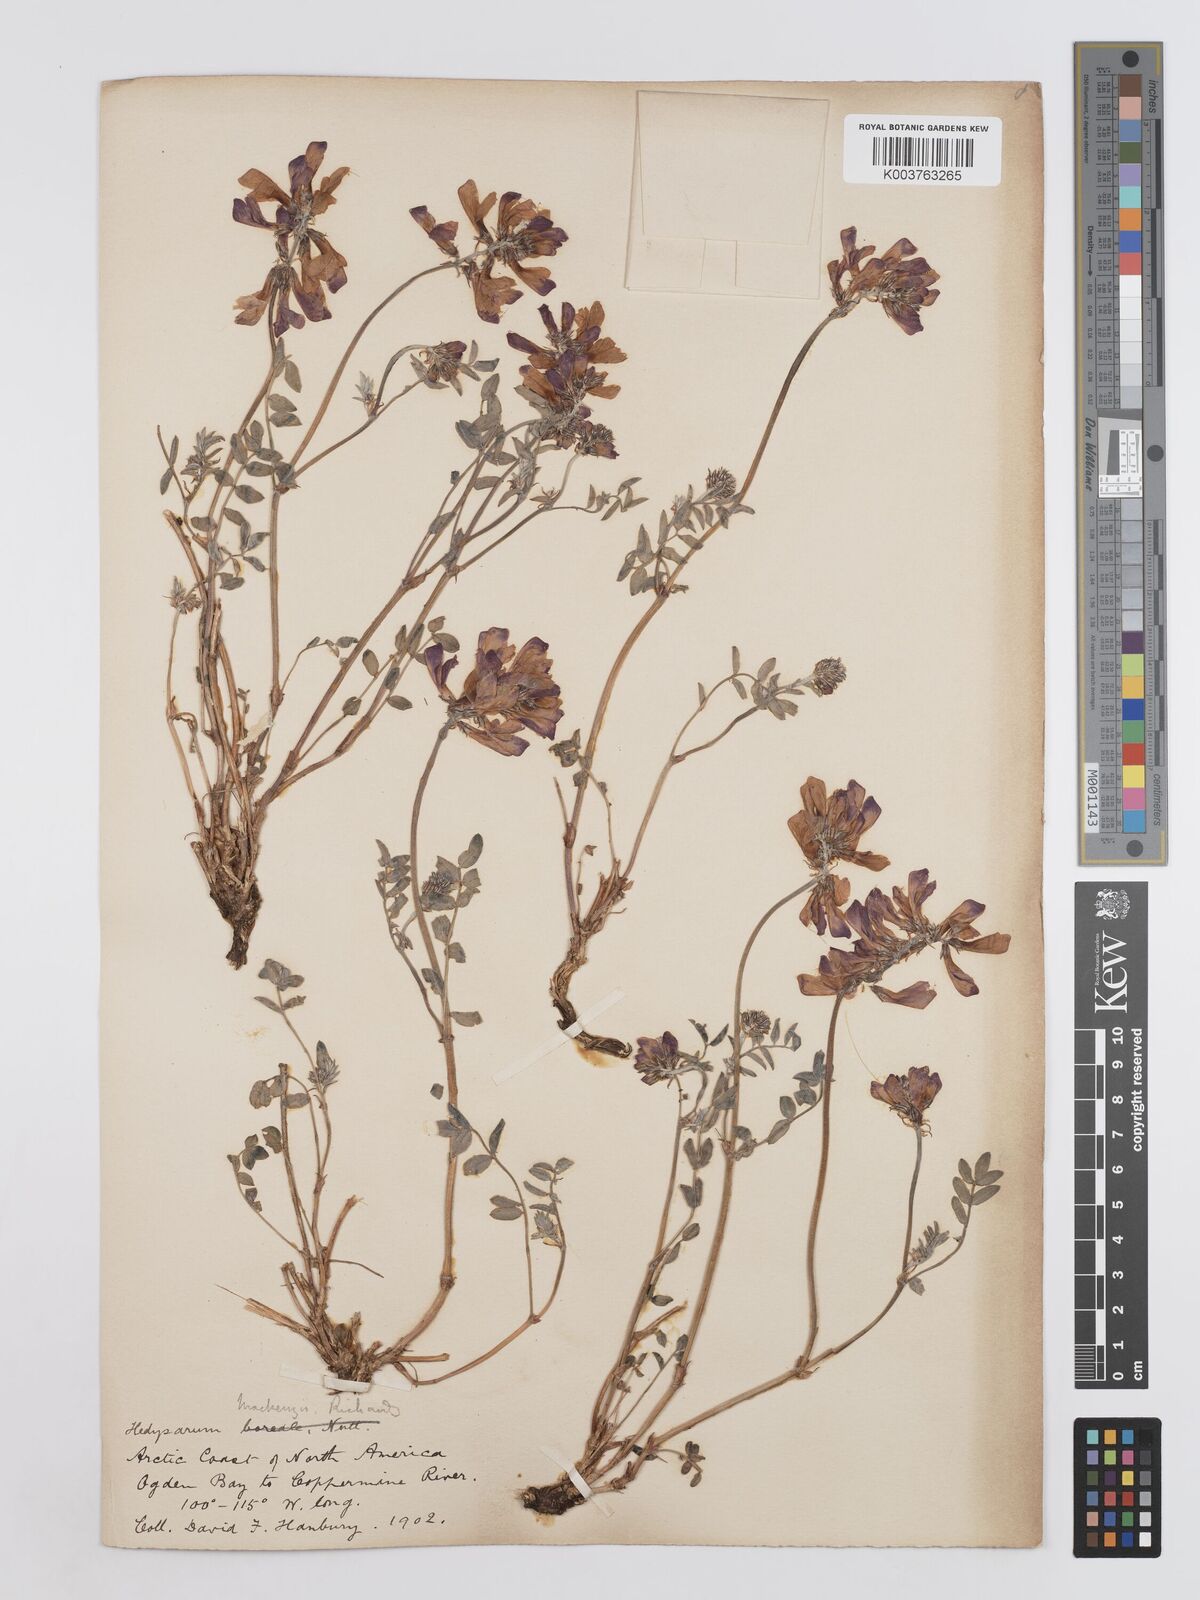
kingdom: Plantae
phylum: Tracheophyta
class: Magnoliopsida
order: Fabales
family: Fabaceae
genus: Hedysarum
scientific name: Hedysarum boreale
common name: Northern sweet-vetch
